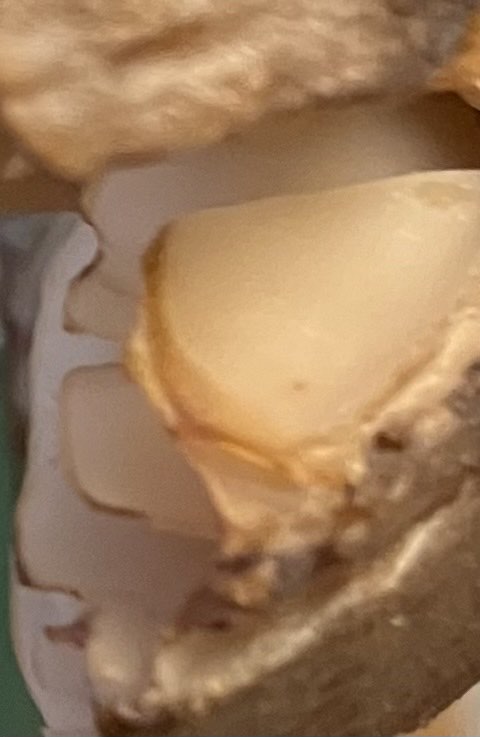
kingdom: Fungi
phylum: Basidiomycota
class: Agaricomycetes
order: Agaricales
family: Hygrophoraceae
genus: Hygrocybe
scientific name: Hygrocybe ingrata
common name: Jensens vokshat
